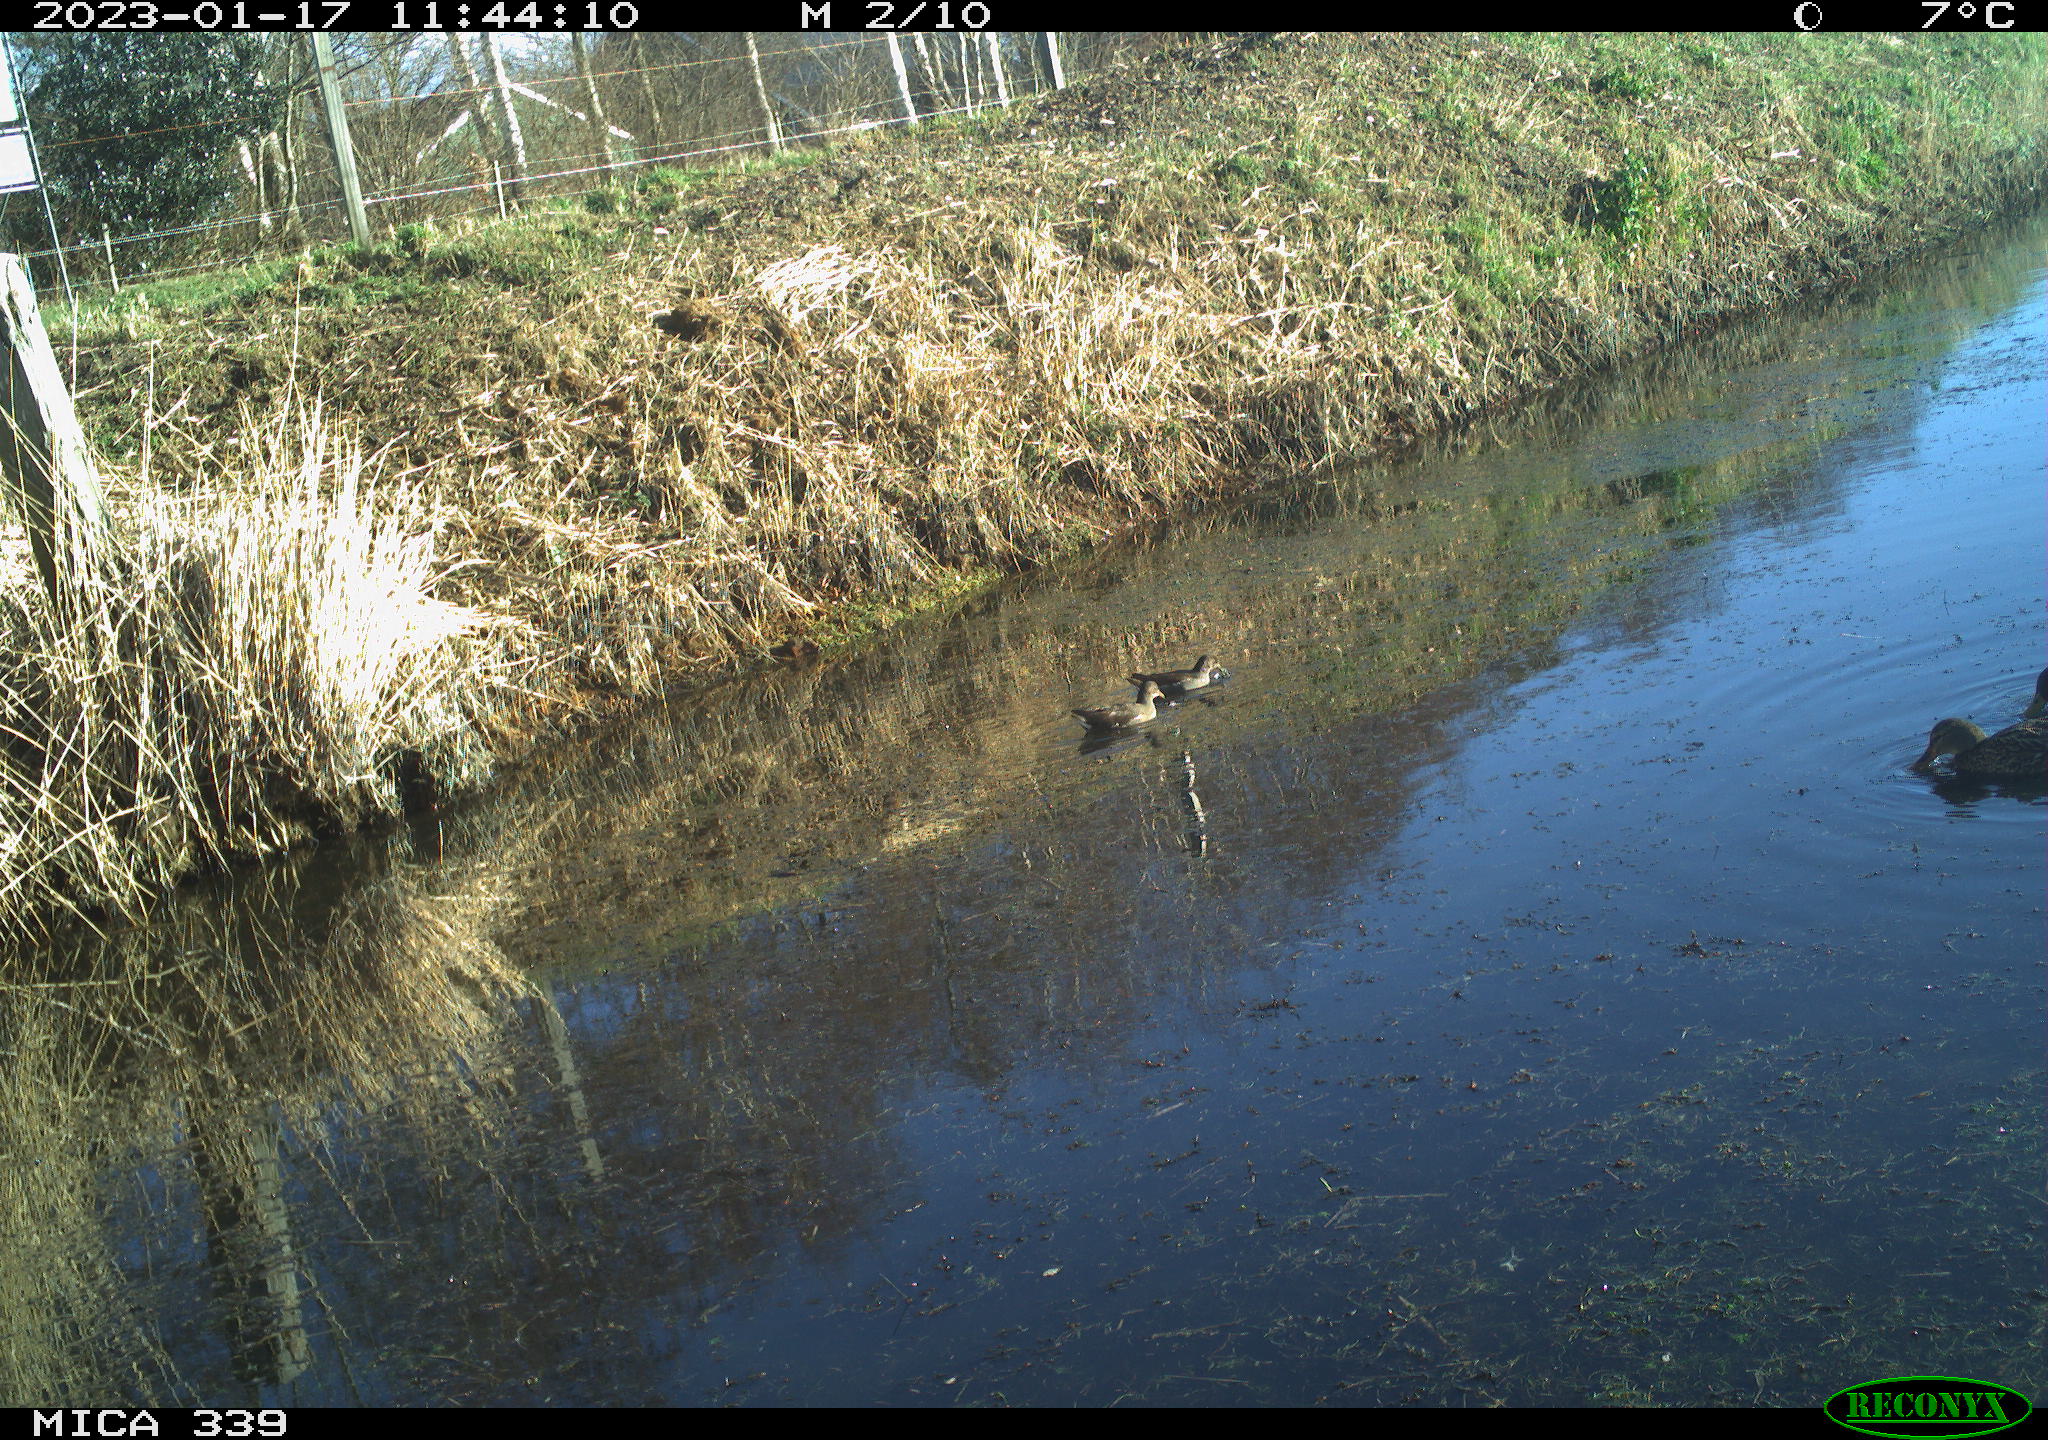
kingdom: Animalia
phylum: Chordata
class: Aves
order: Gruiformes
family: Rallidae
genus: Gallinula
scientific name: Gallinula chloropus
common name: Common moorhen
